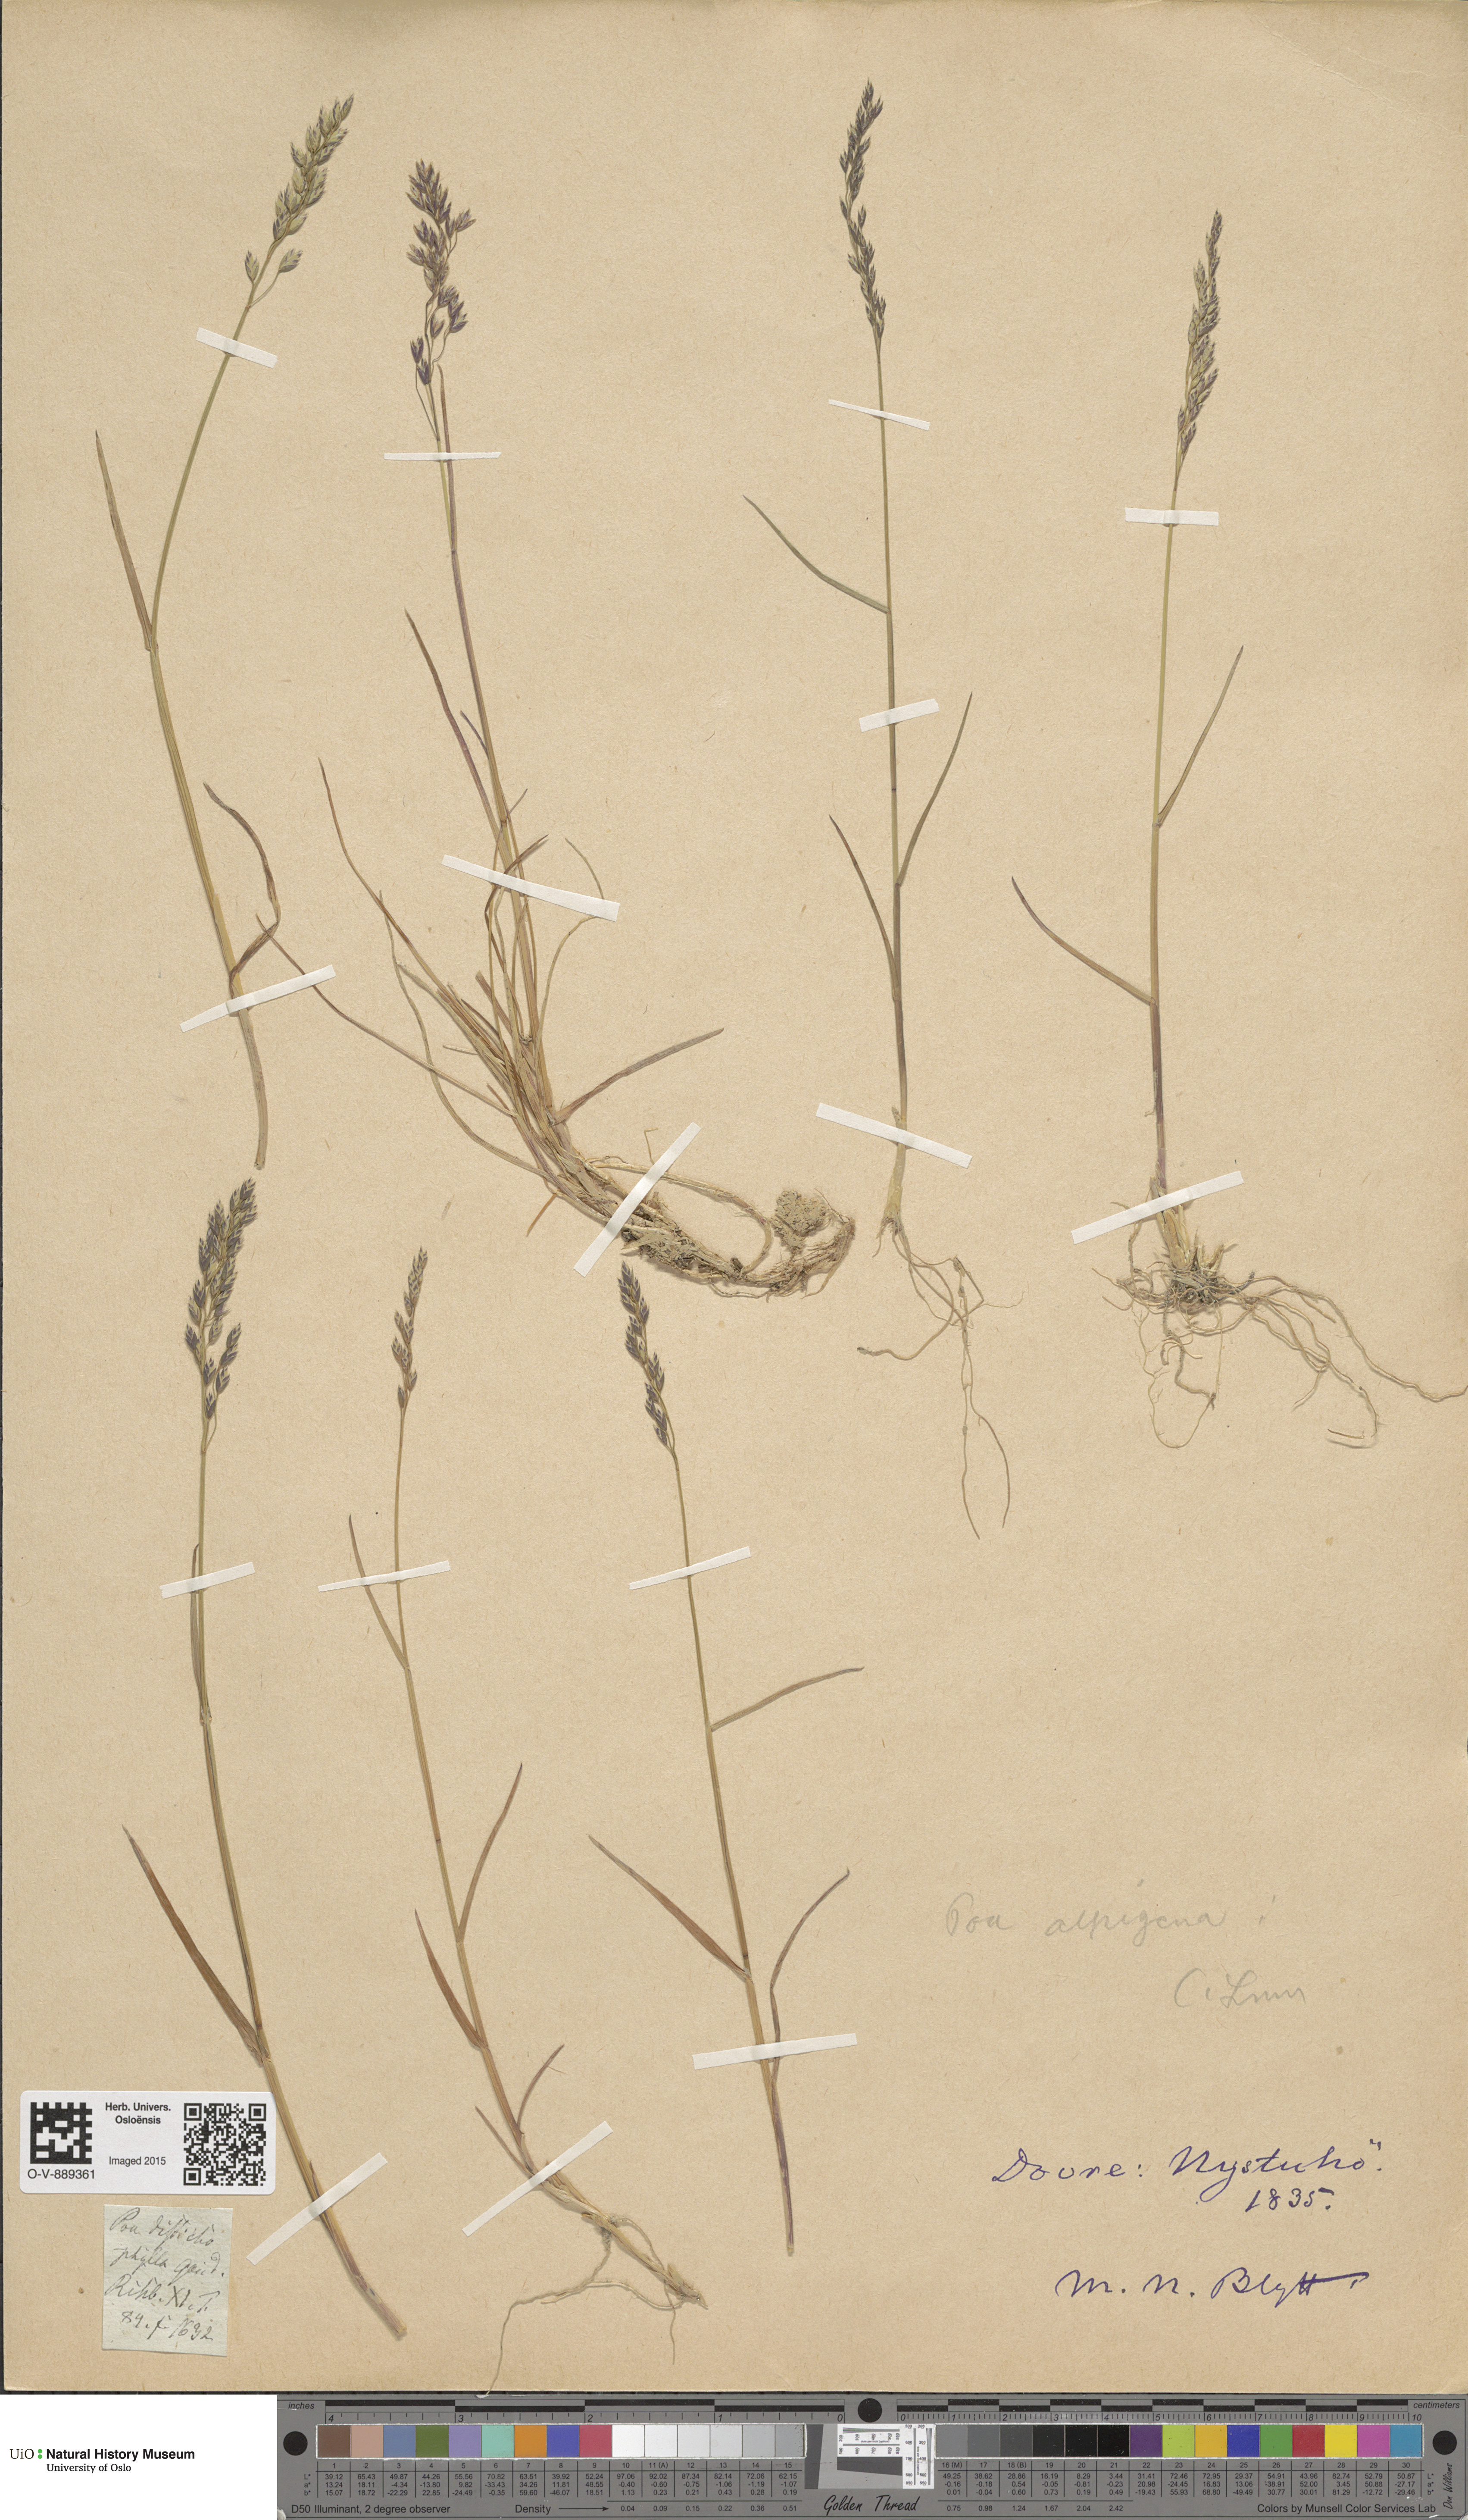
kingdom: Plantae
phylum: Tracheophyta
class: Liliopsida
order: Poales
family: Poaceae
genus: Poa
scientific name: Poa alpigena
